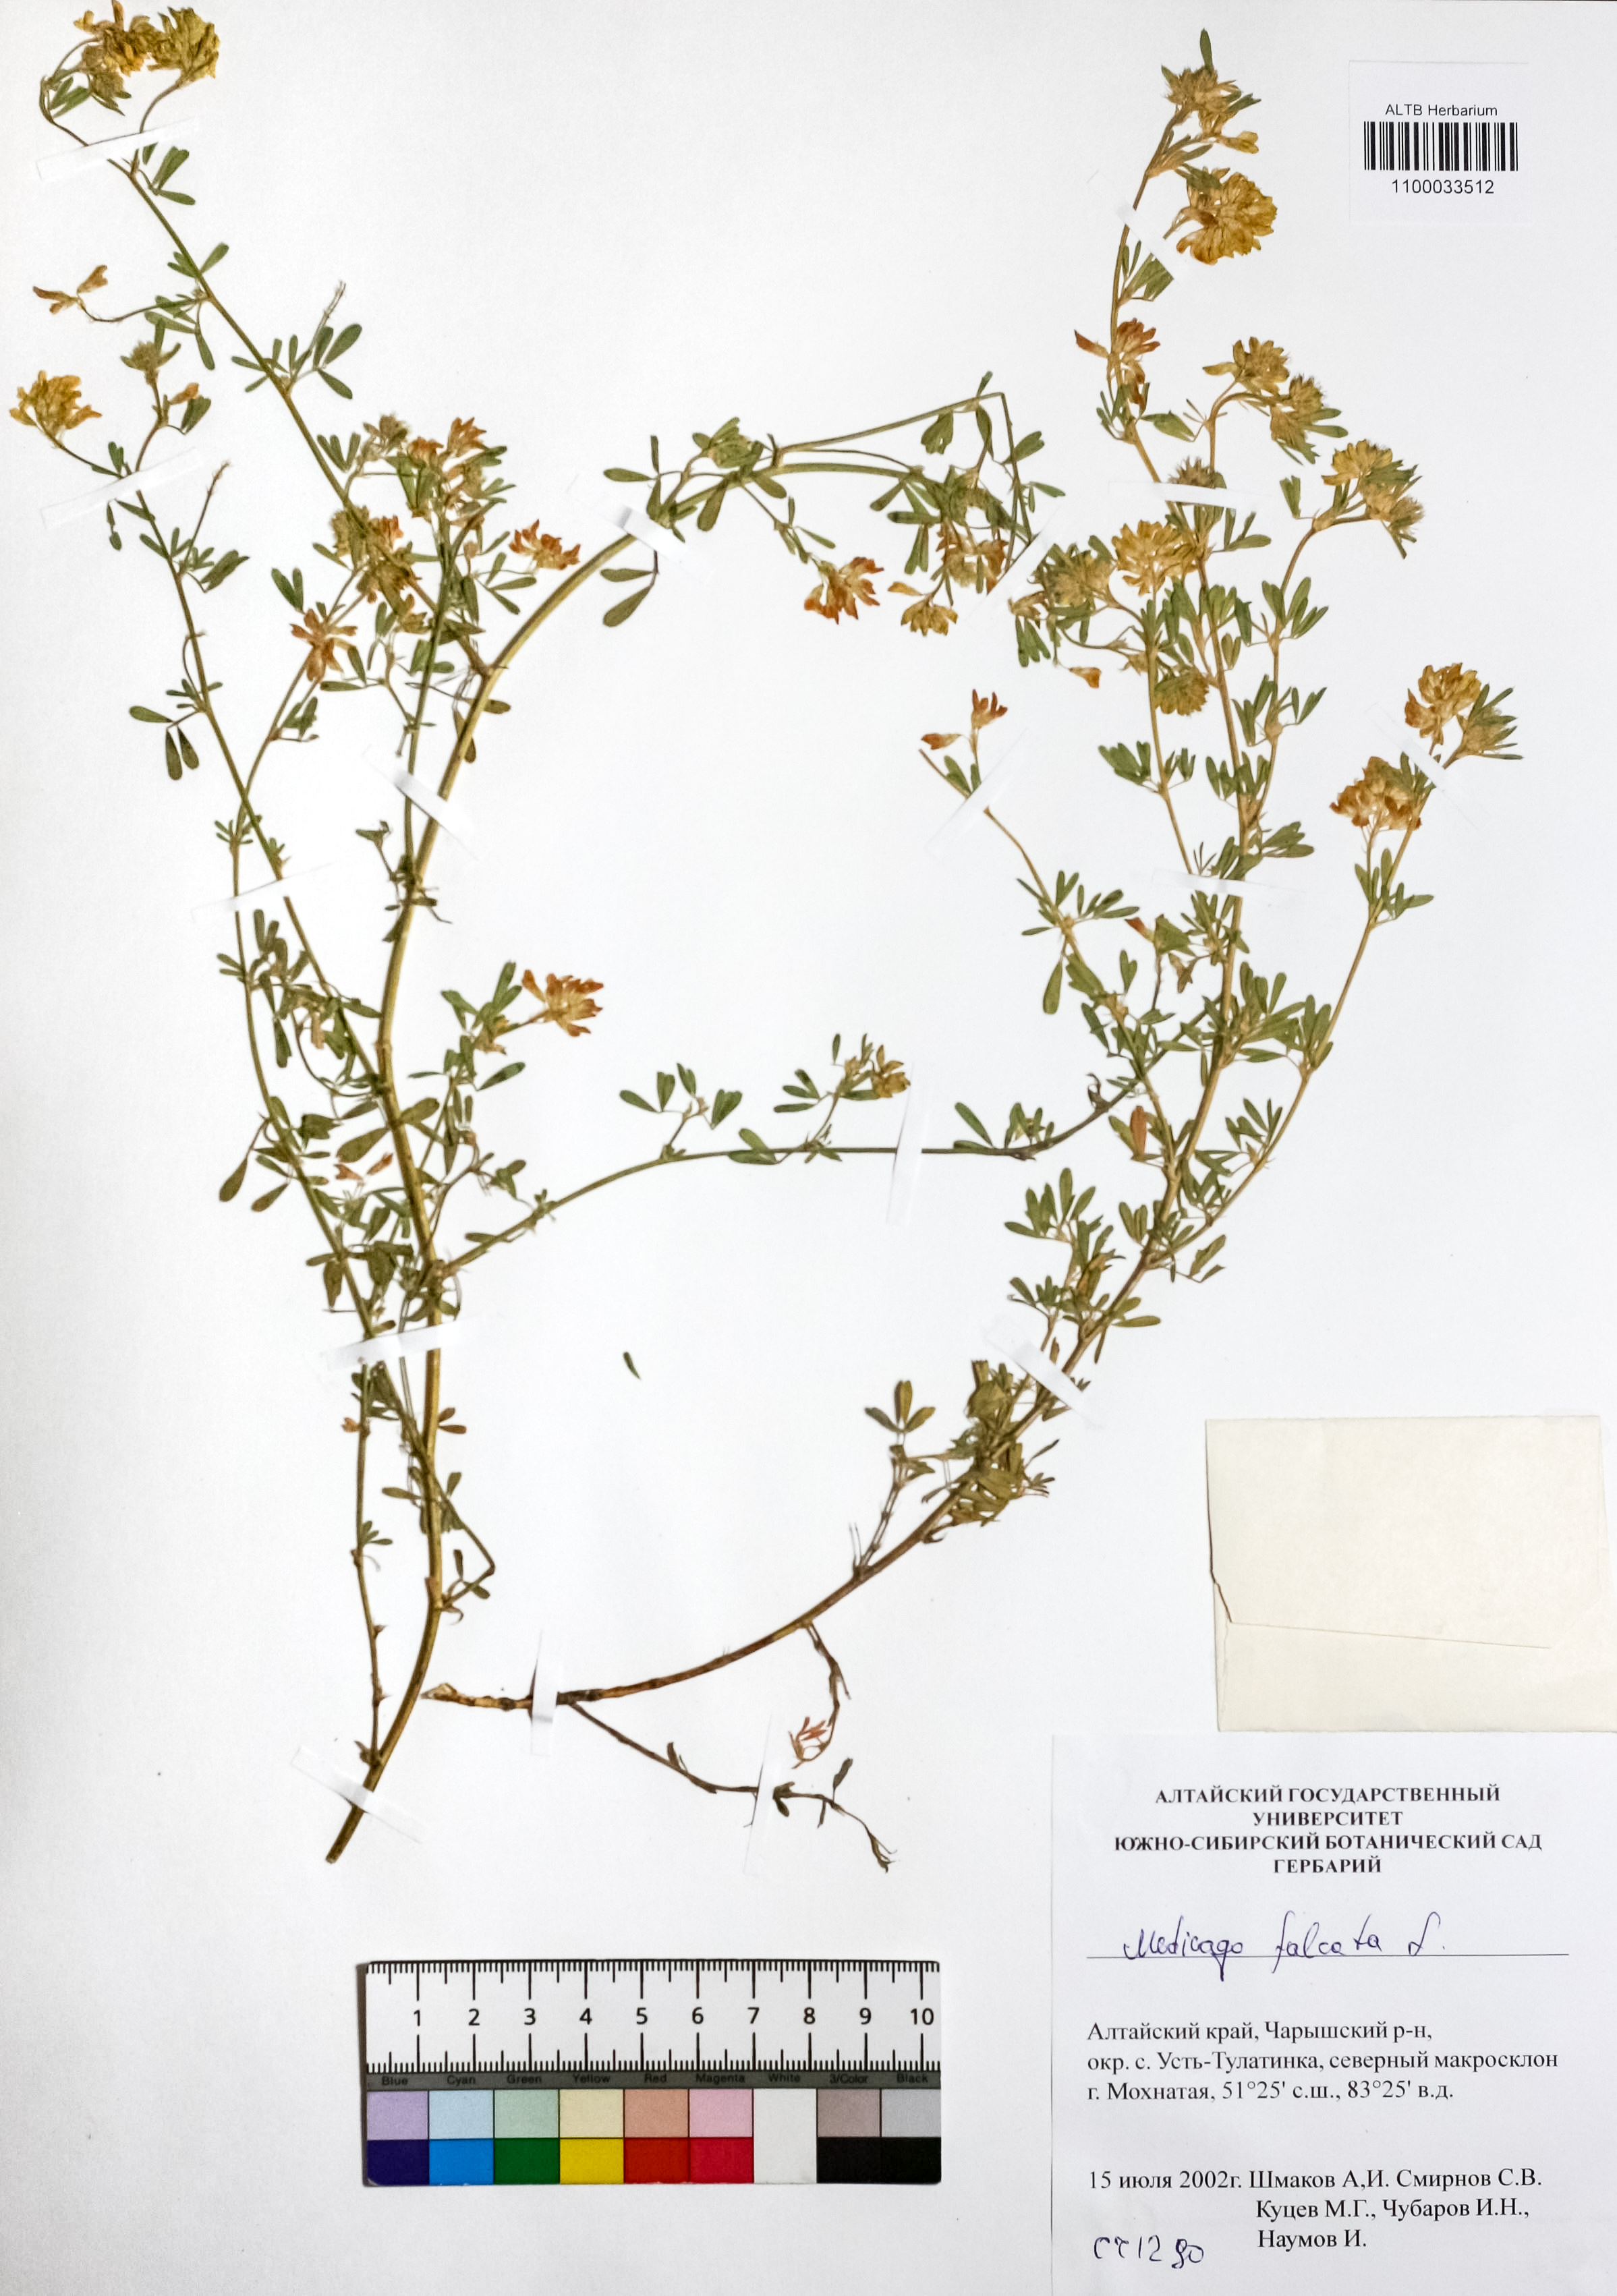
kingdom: Plantae
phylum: Tracheophyta
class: Magnoliopsida
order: Fabales
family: Fabaceae
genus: Medicago
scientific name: Medicago falcata
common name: Sickle medick
